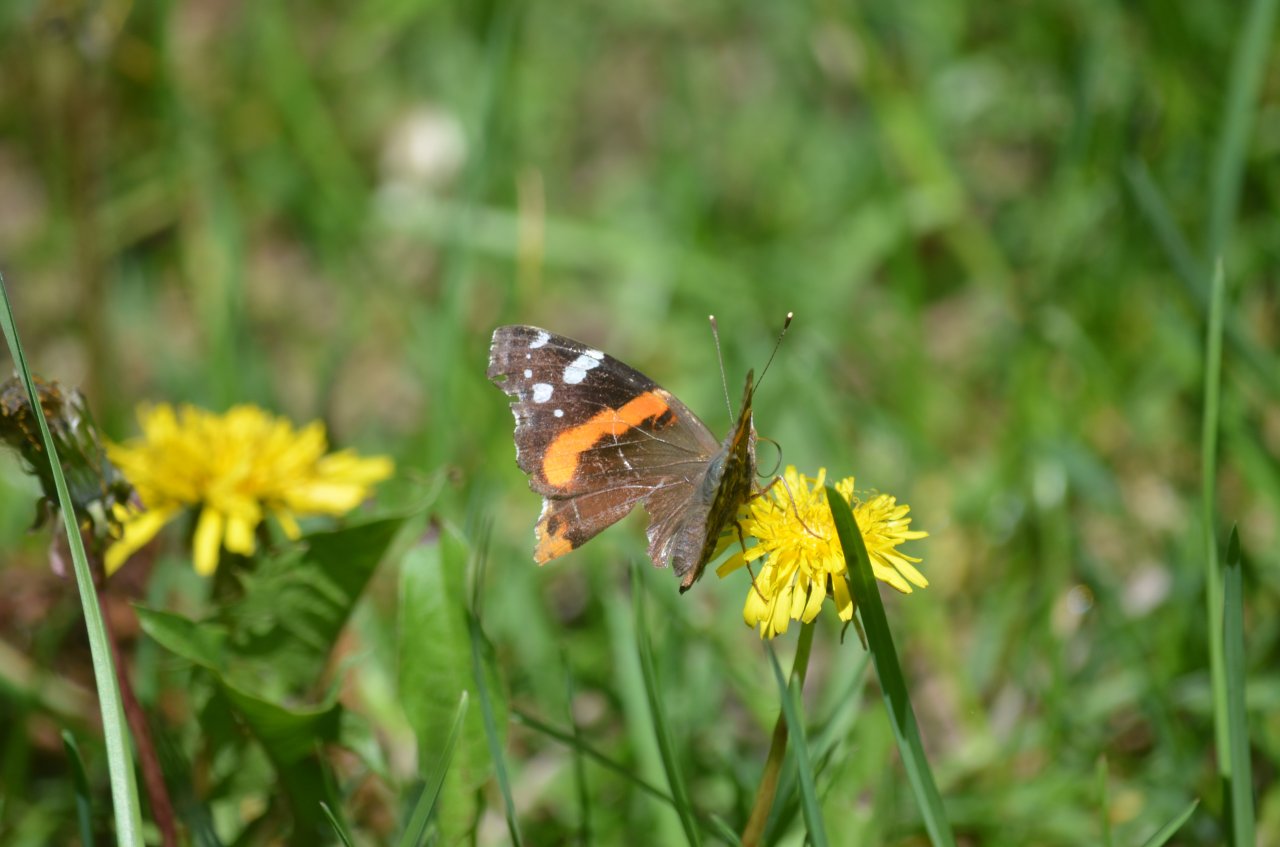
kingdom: Animalia
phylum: Arthropoda
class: Insecta
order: Lepidoptera
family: Nymphalidae
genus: Vanessa
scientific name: Vanessa atalanta
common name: Red Admiral
